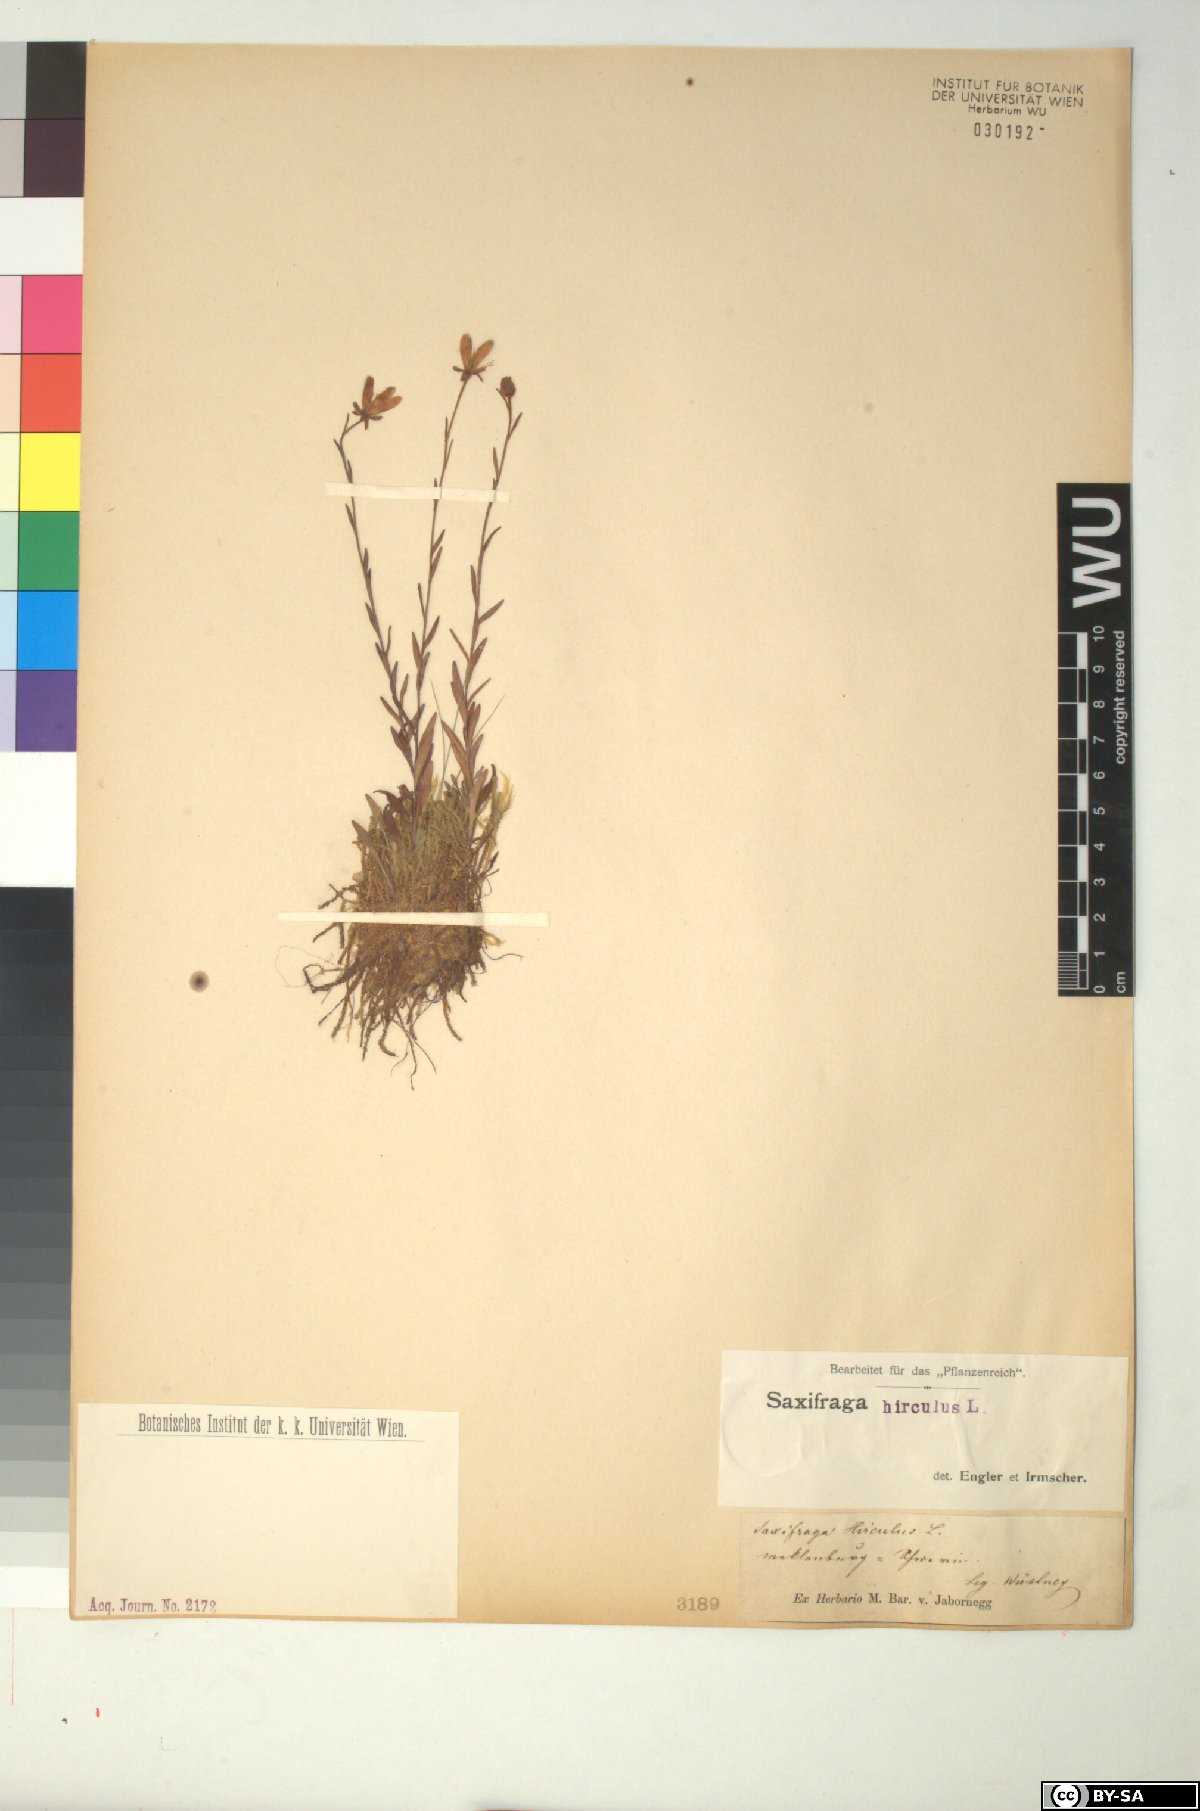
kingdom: Plantae
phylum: Tracheophyta
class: Magnoliopsida
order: Saxifragales
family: Saxifragaceae
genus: Saxifraga
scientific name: Saxifraga hirculus
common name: Yellow marsh saxifrage
